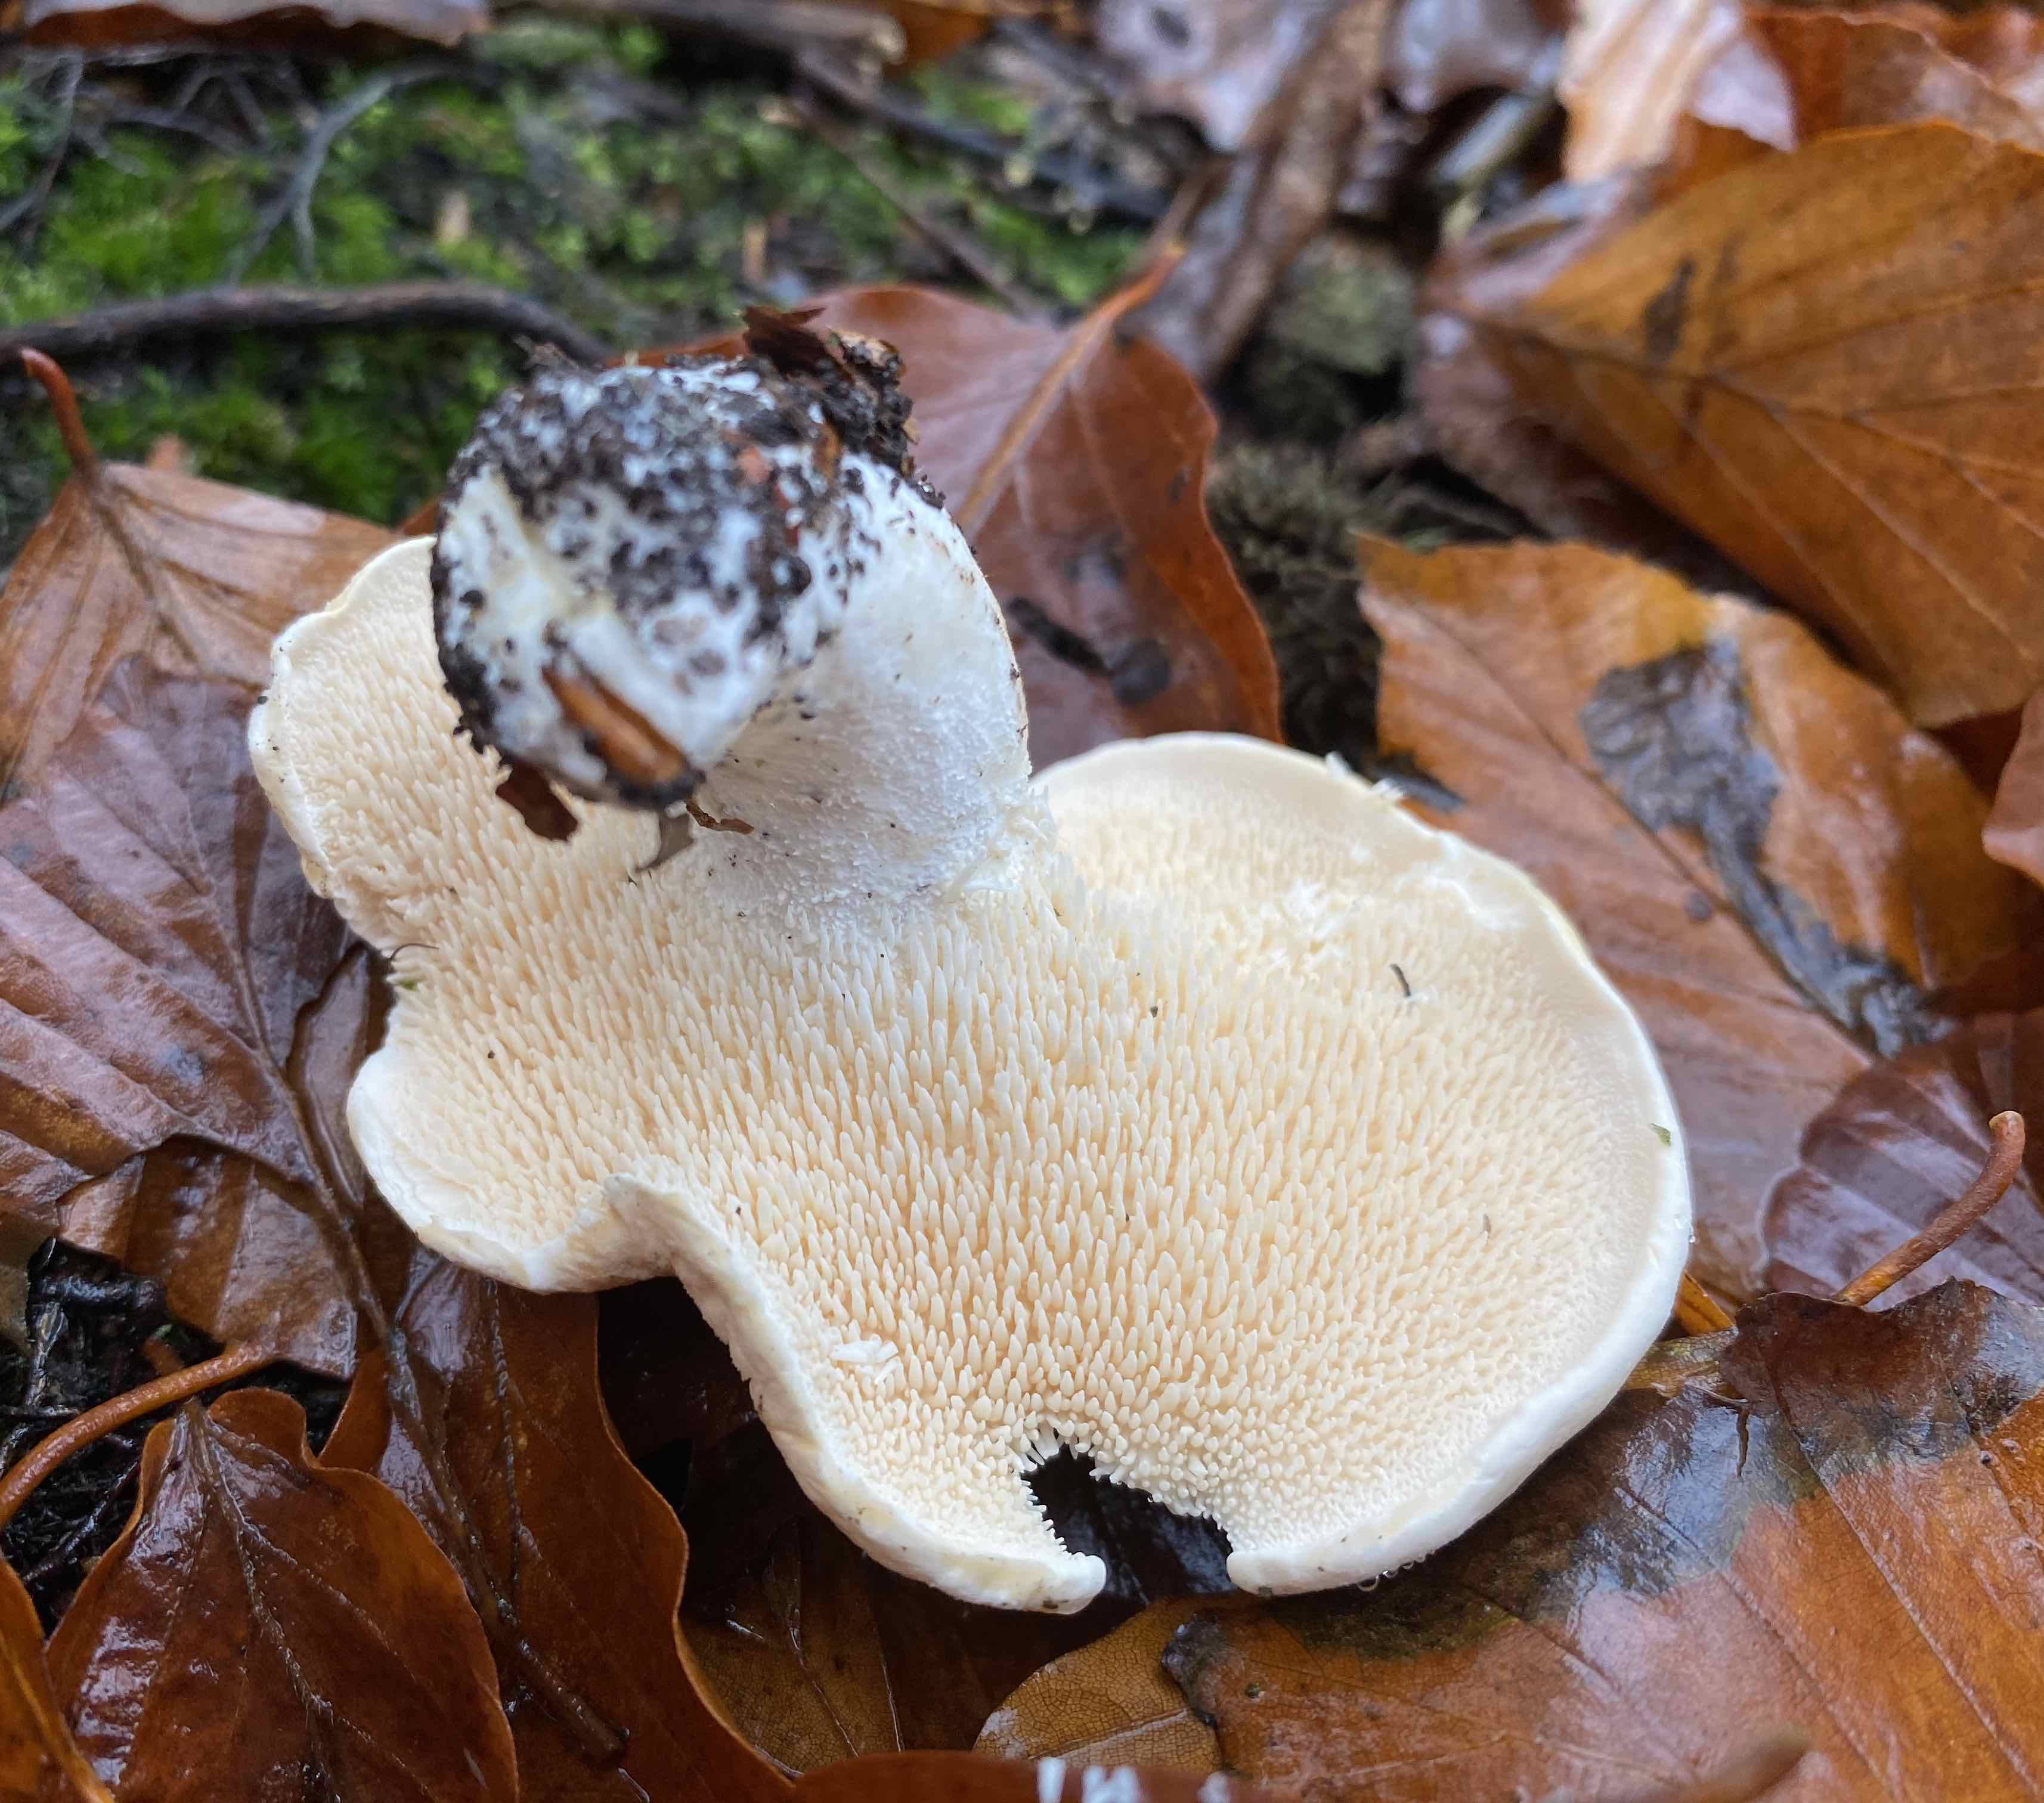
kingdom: Fungi
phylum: Basidiomycota
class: Agaricomycetes
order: Cantharellales
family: Hydnaceae
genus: Hydnum
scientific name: Hydnum repandum
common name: almindelig pigsvamp
